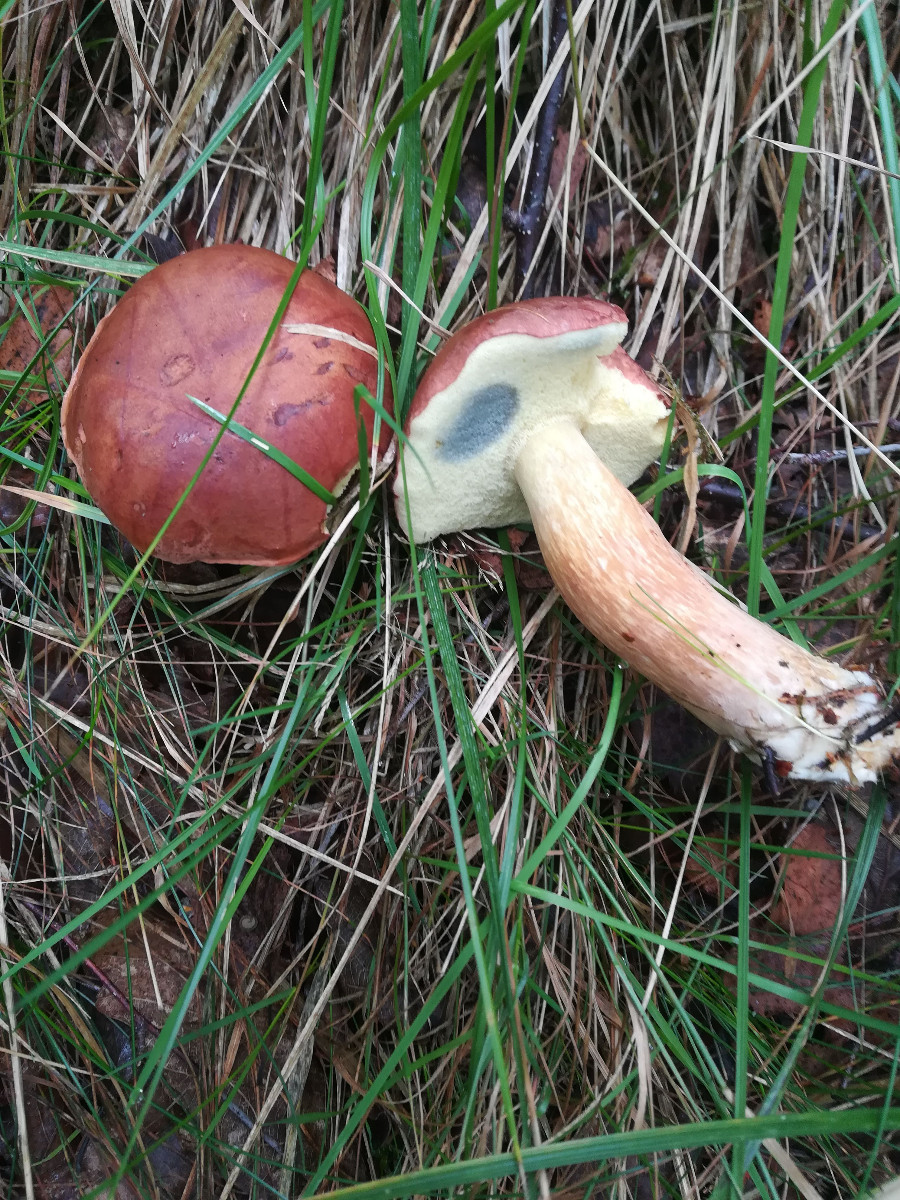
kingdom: Fungi
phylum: Basidiomycota
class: Agaricomycetes
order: Boletales
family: Boletaceae
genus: Imleria
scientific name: Imleria badia
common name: brunstokket rørhat
